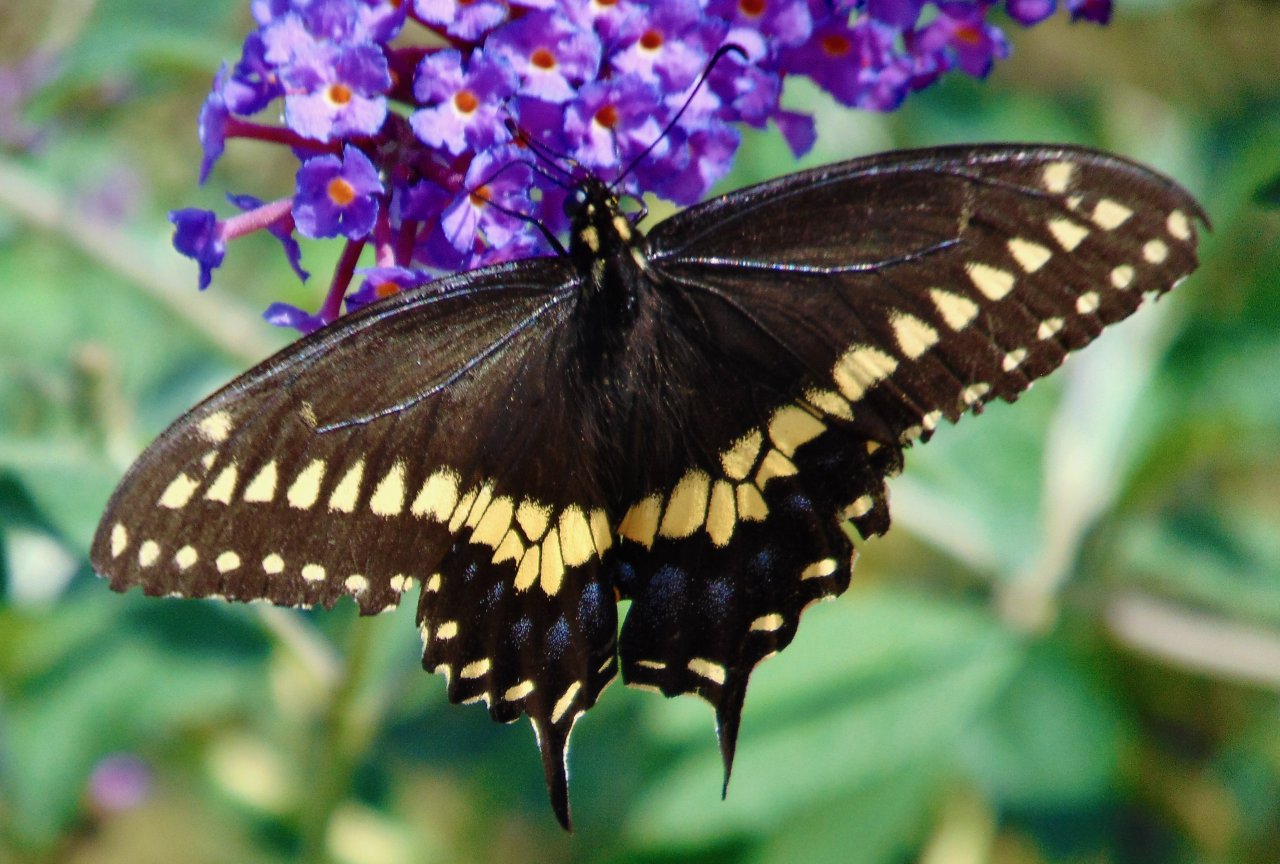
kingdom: Animalia
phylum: Arthropoda
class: Insecta
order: Lepidoptera
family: Papilionidae
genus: Papilio
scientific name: Papilio polyxenes
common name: Black Swallowtail
